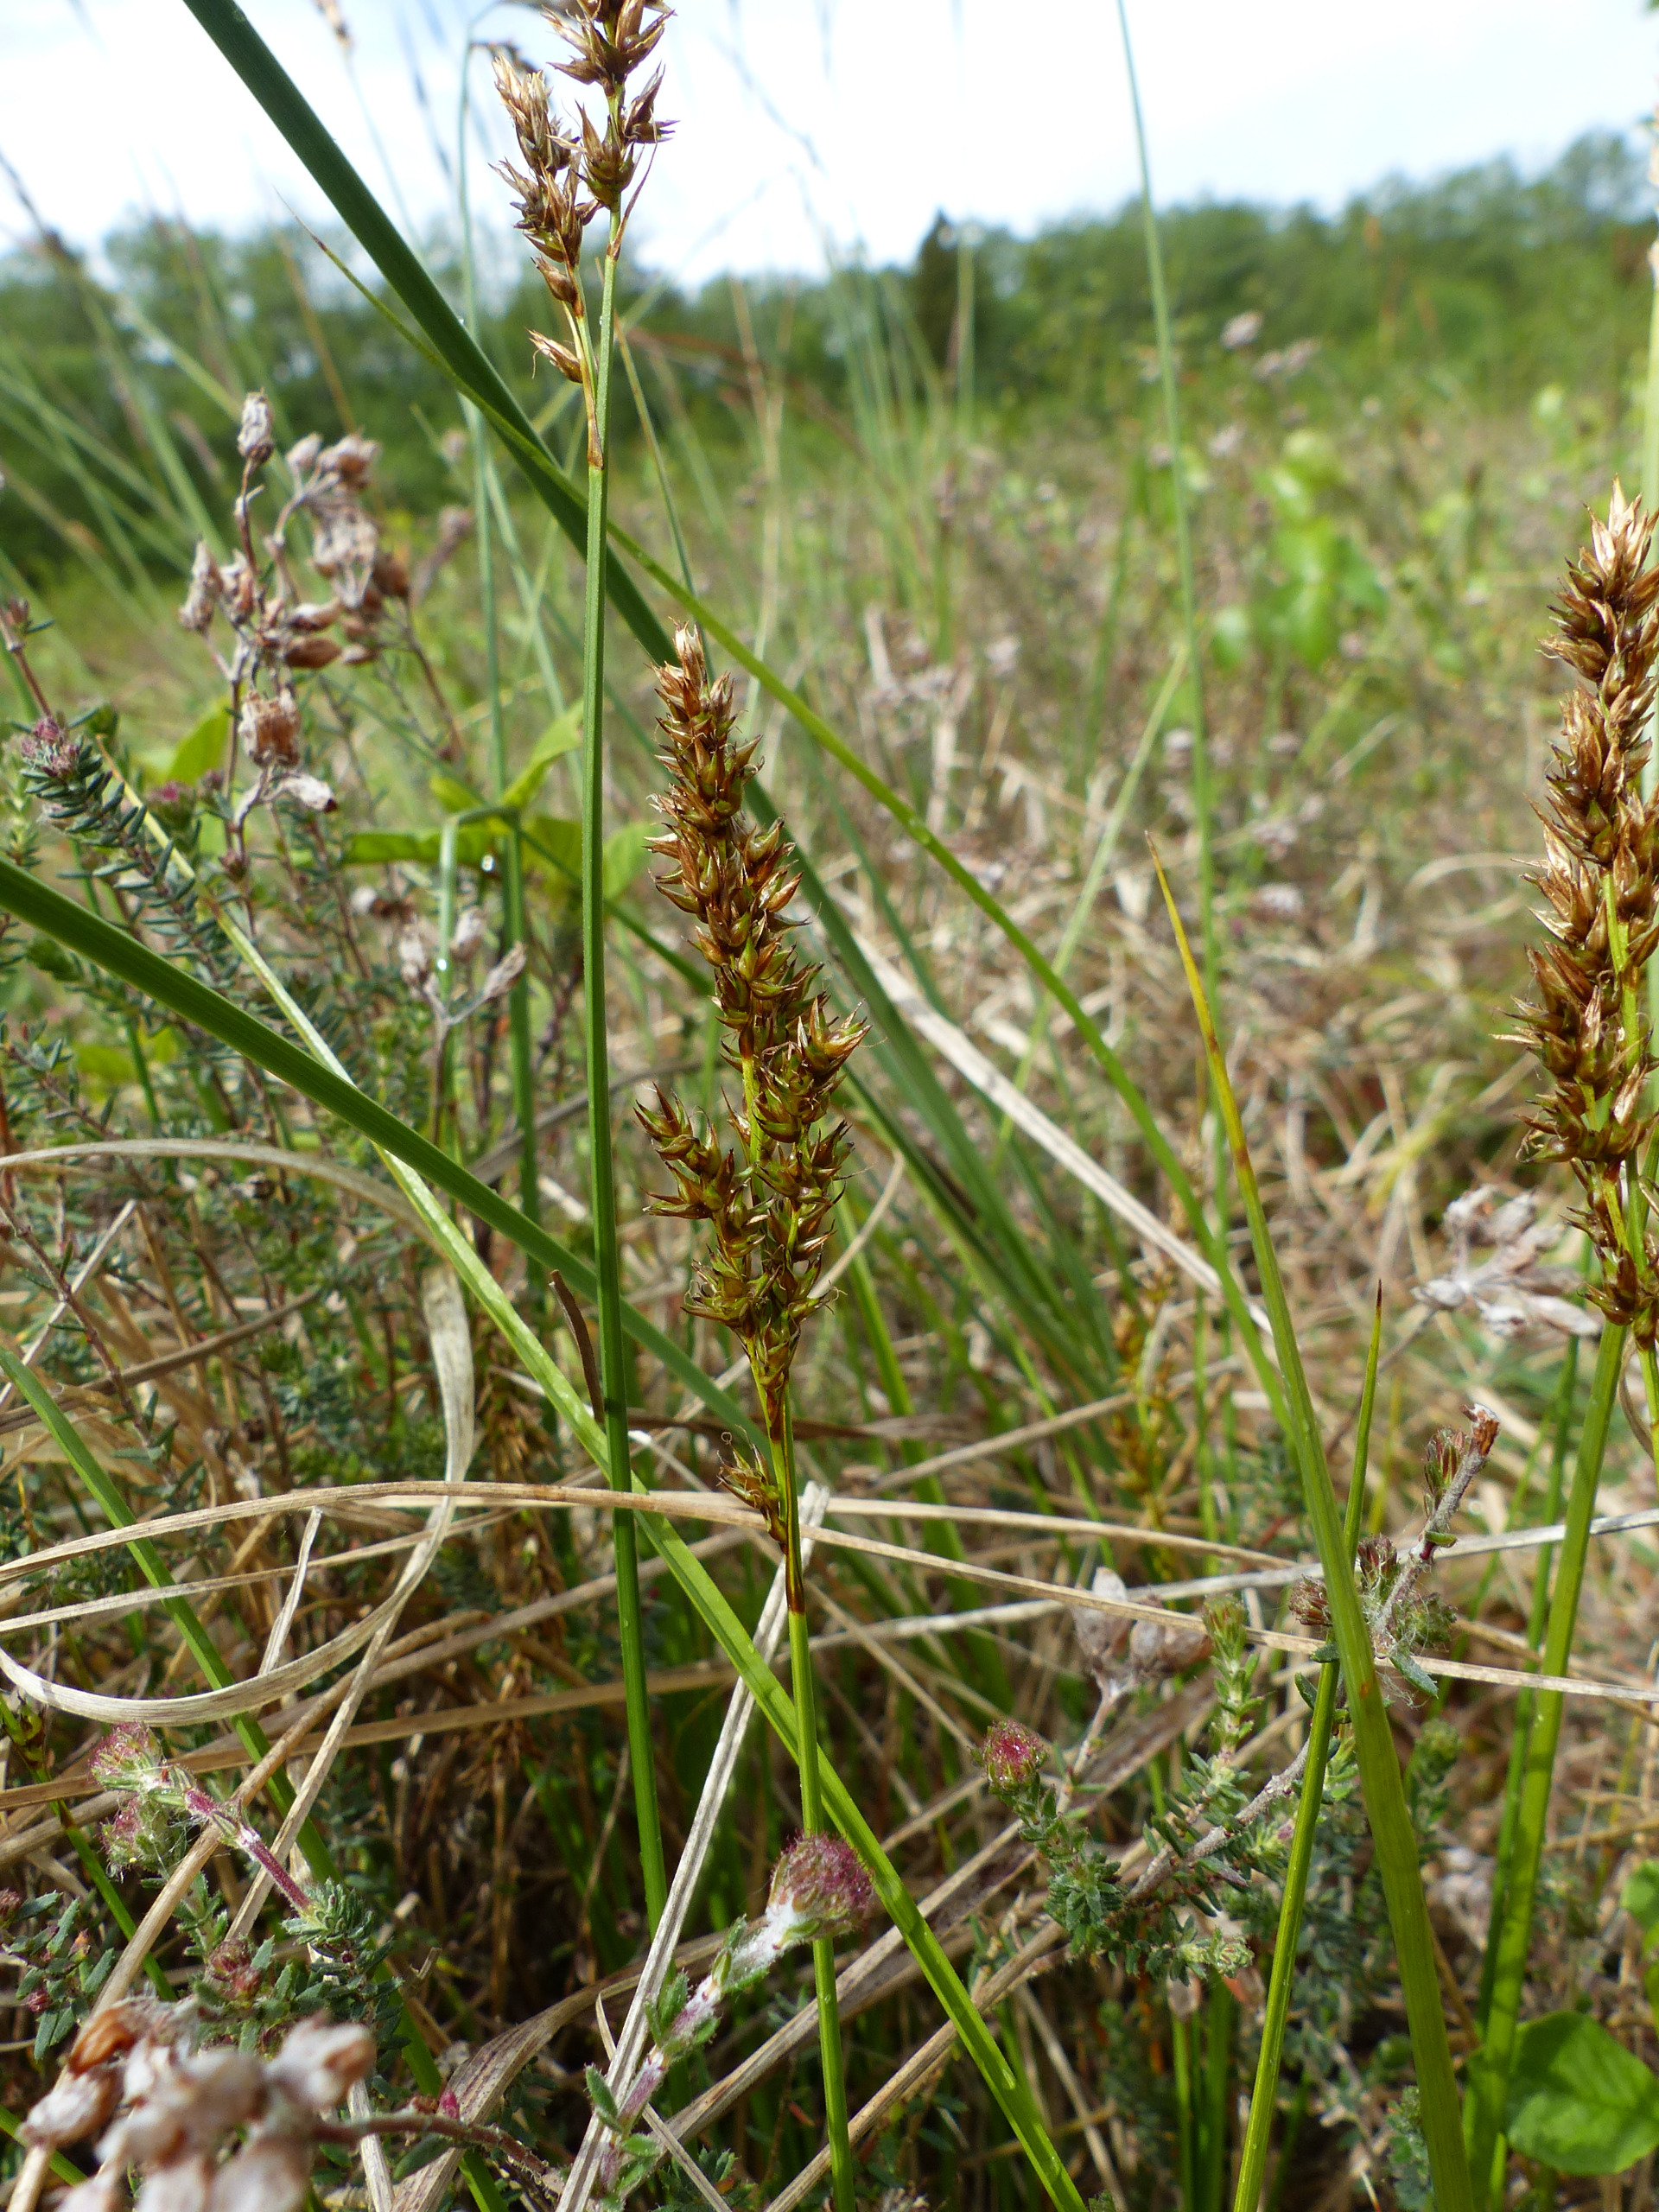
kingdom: Plantae
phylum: Tracheophyta
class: Liliopsida
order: Poales
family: Cyperaceae
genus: Carex
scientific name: Carex appropinquata
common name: Langakset star
